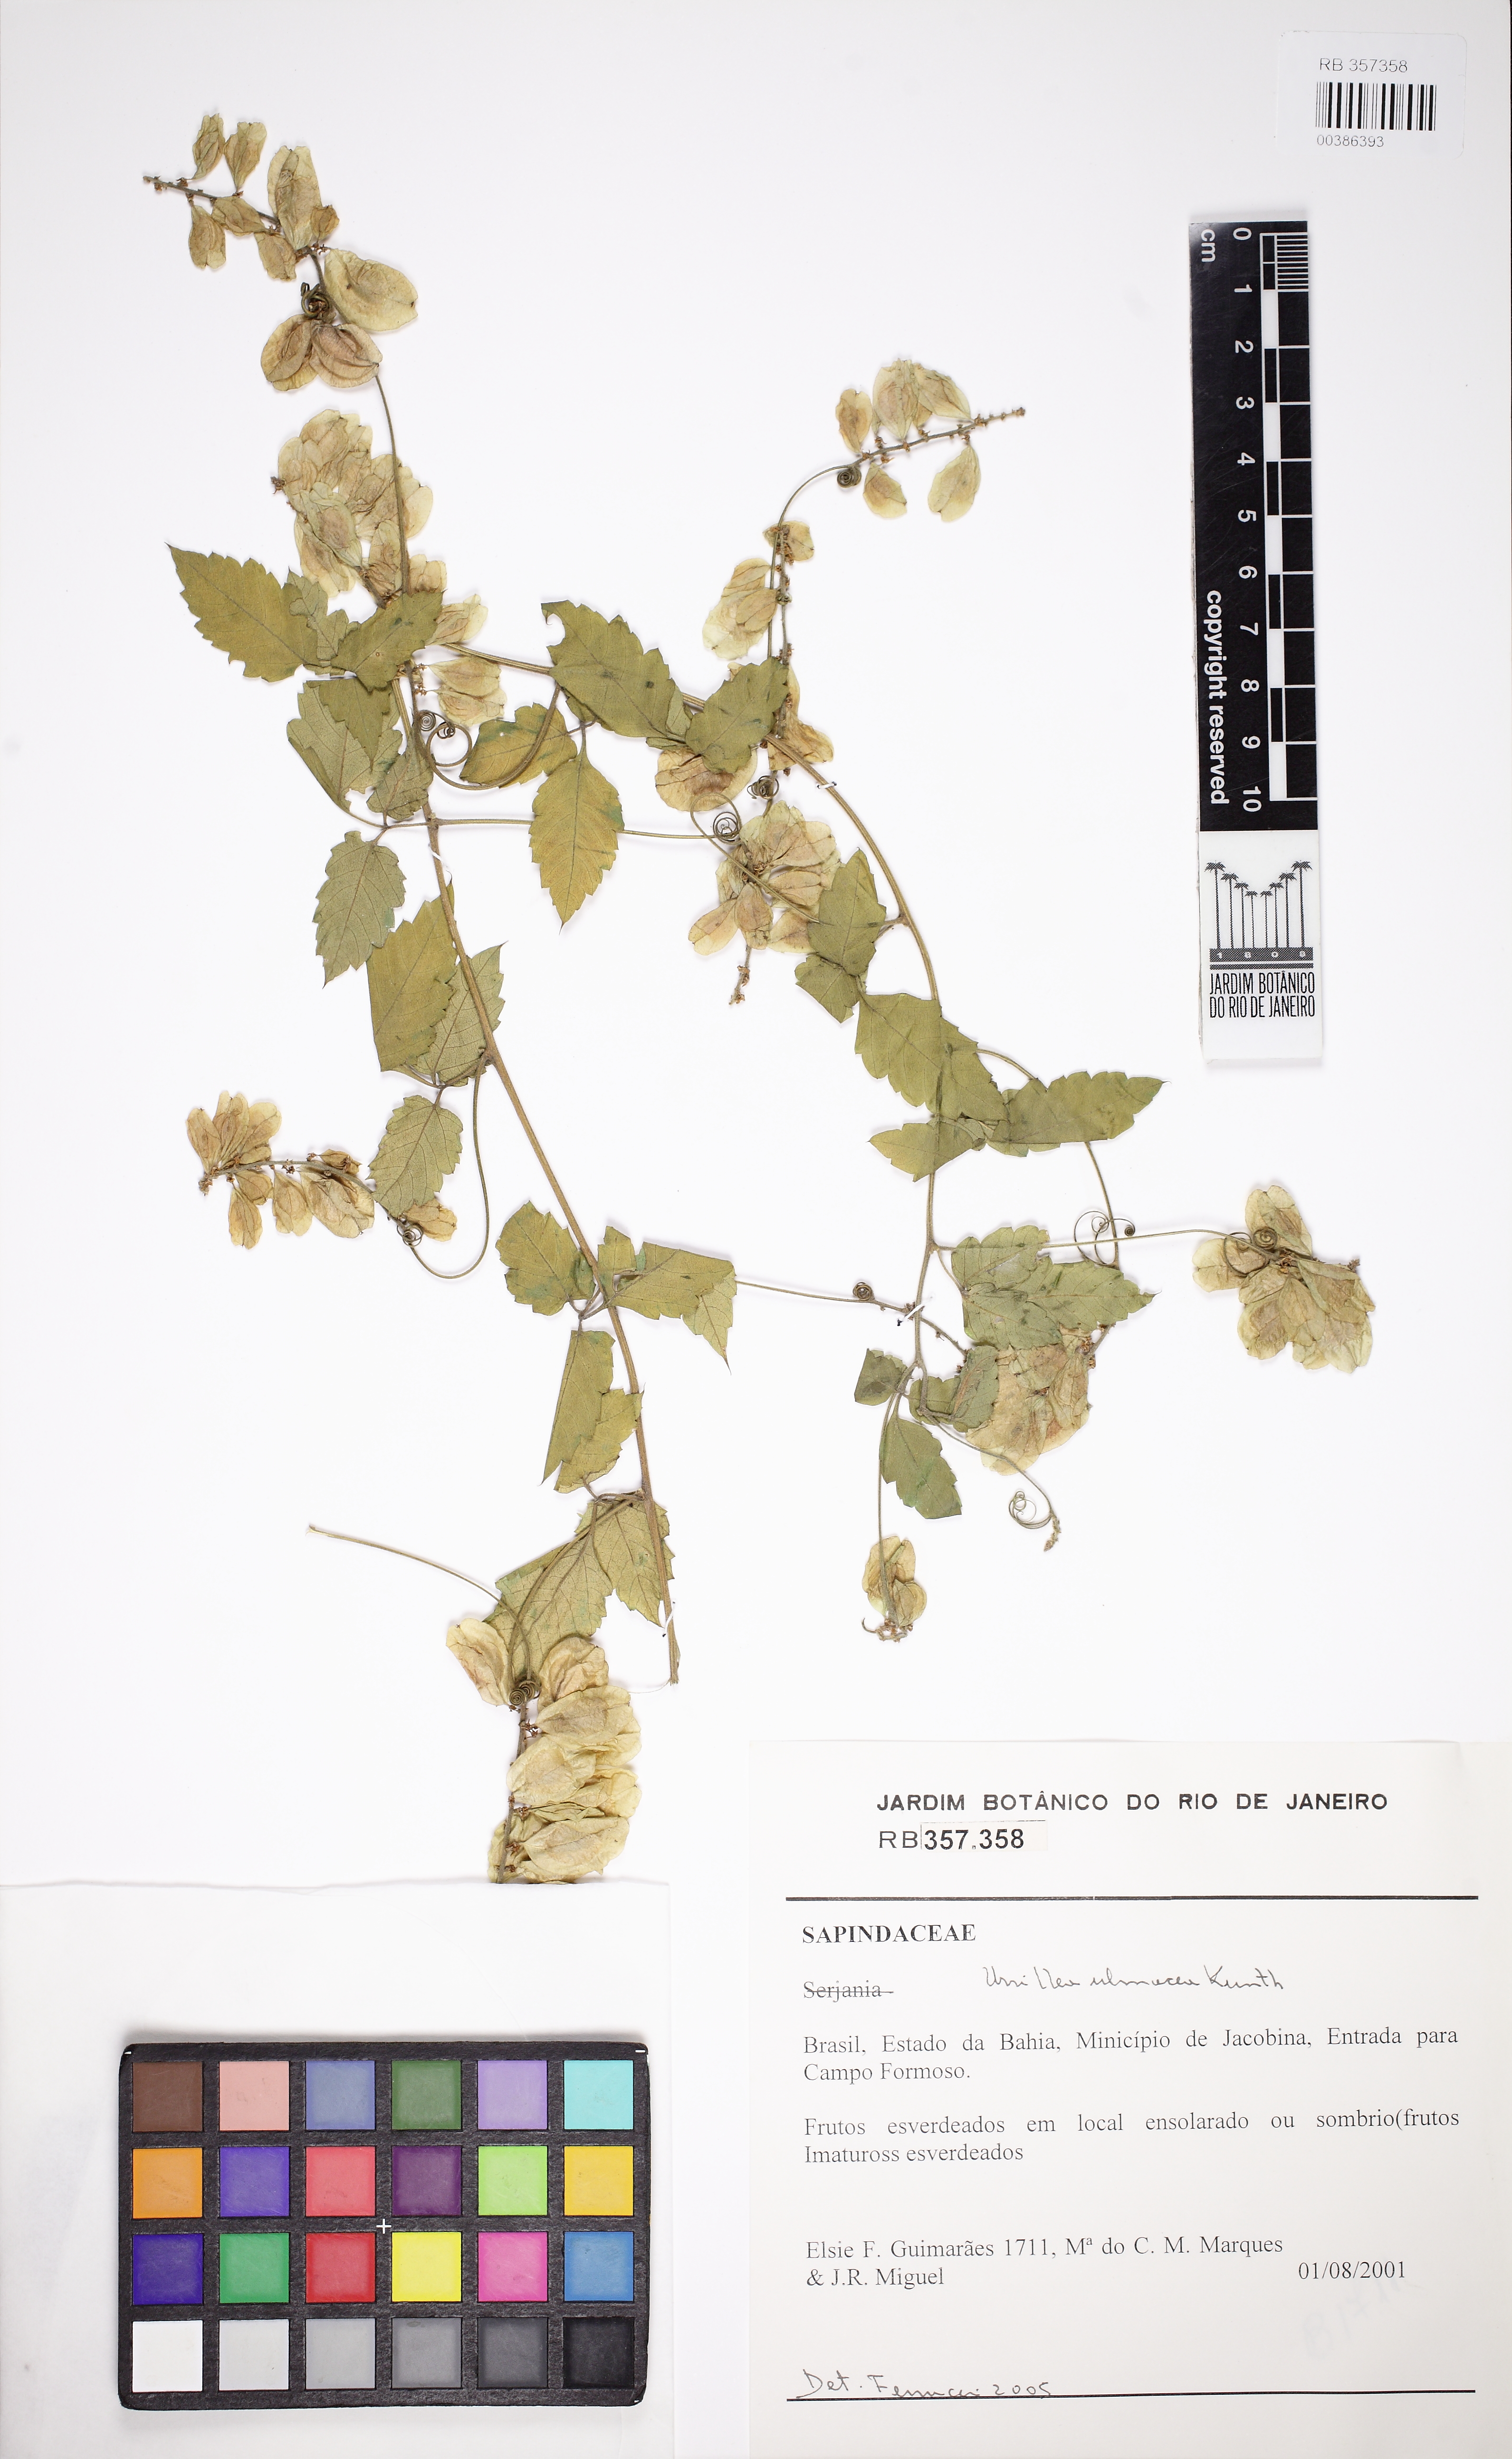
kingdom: Plantae
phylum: Tracheophyta
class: Magnoliopsida
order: Sapindales
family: Sapindaceae
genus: Urvillea
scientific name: Urvillea ulmacea
